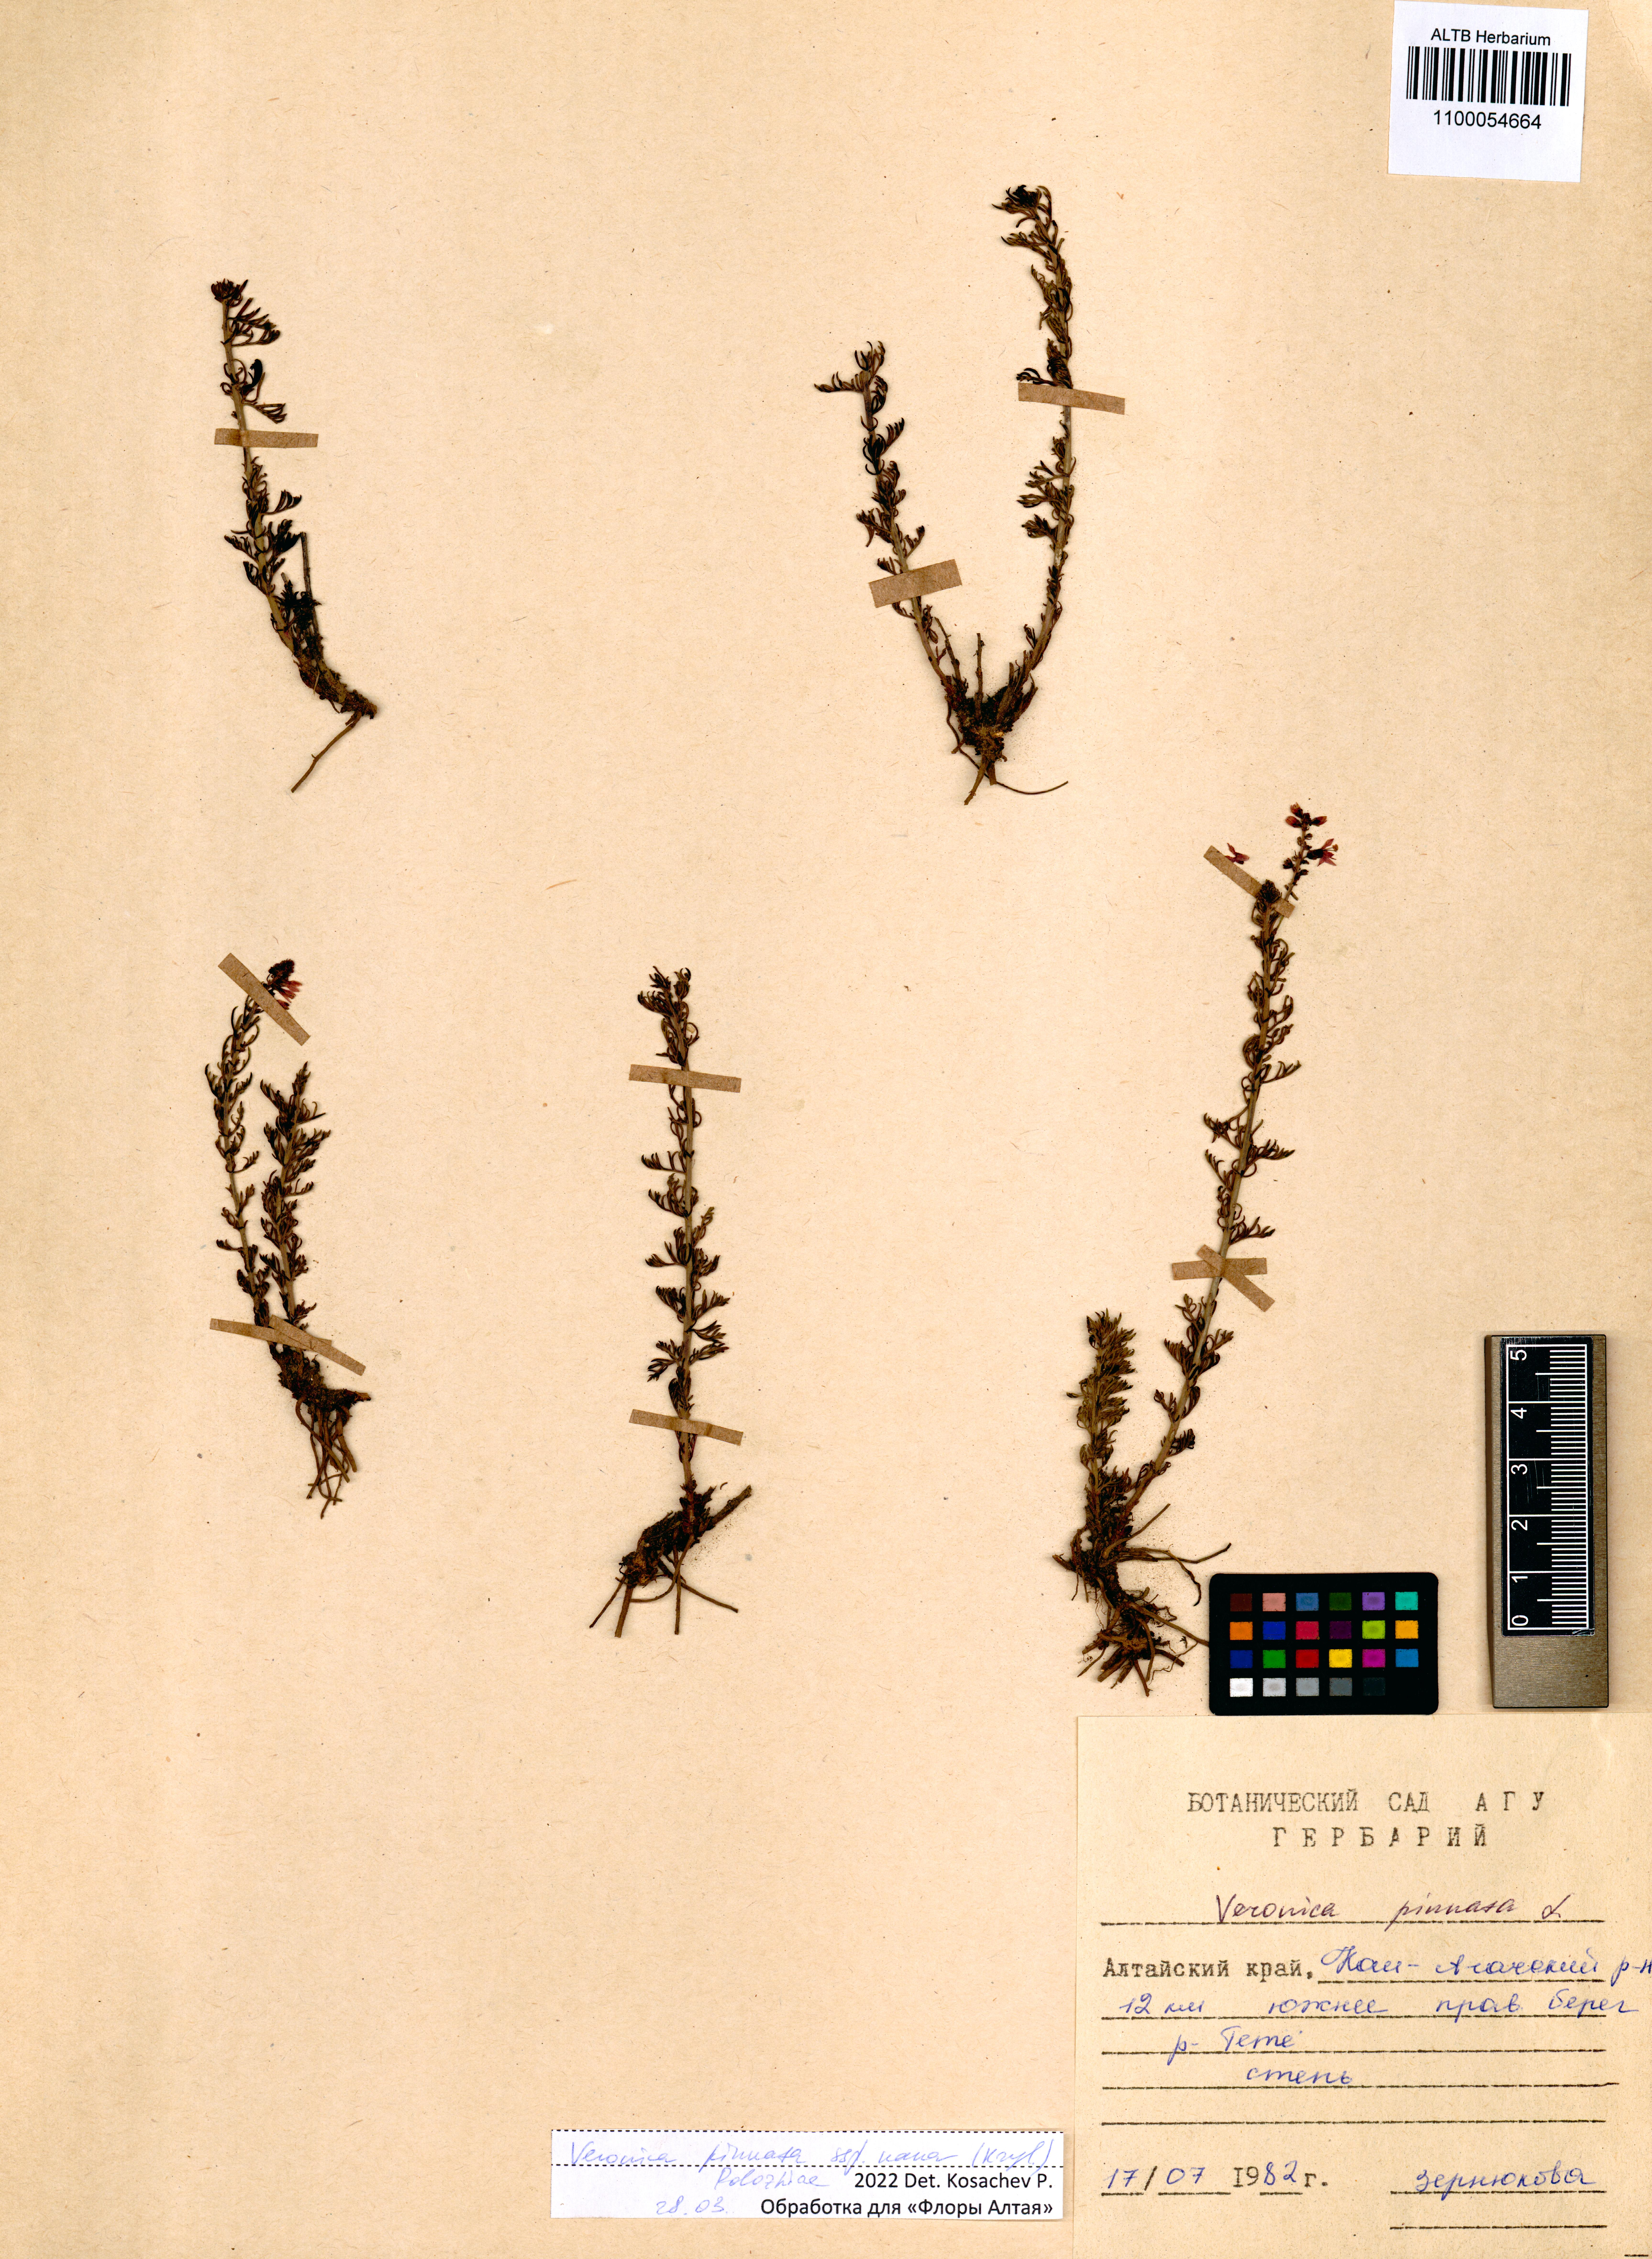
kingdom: Plantae
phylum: Tracheophyta
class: Magnoliopsida
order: Lamiales
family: Plantaginaceae
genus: Veronica
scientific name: Veronica pinnata
